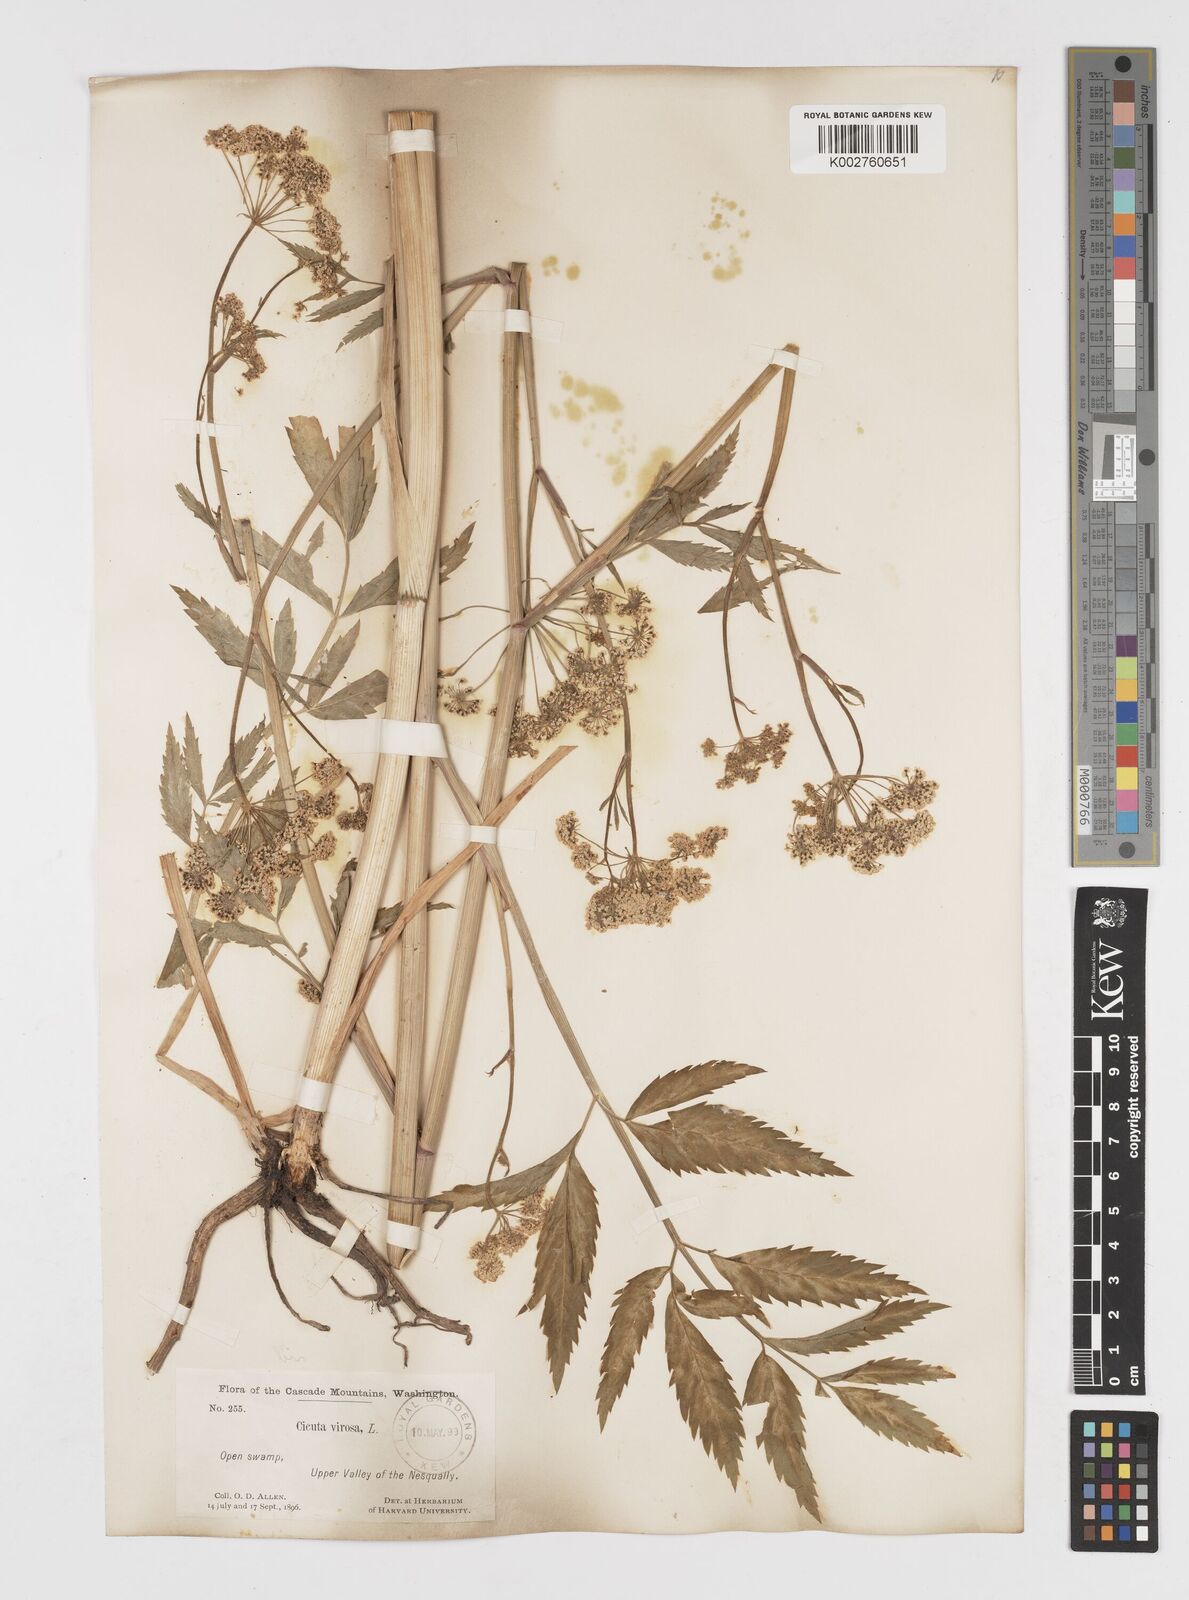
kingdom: Plantae
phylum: Tracheophyta
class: Magnoliopsida
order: Apiales
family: Apiaceae
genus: Cicuta
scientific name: Cicuta douglasii
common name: Western water-hemlock
